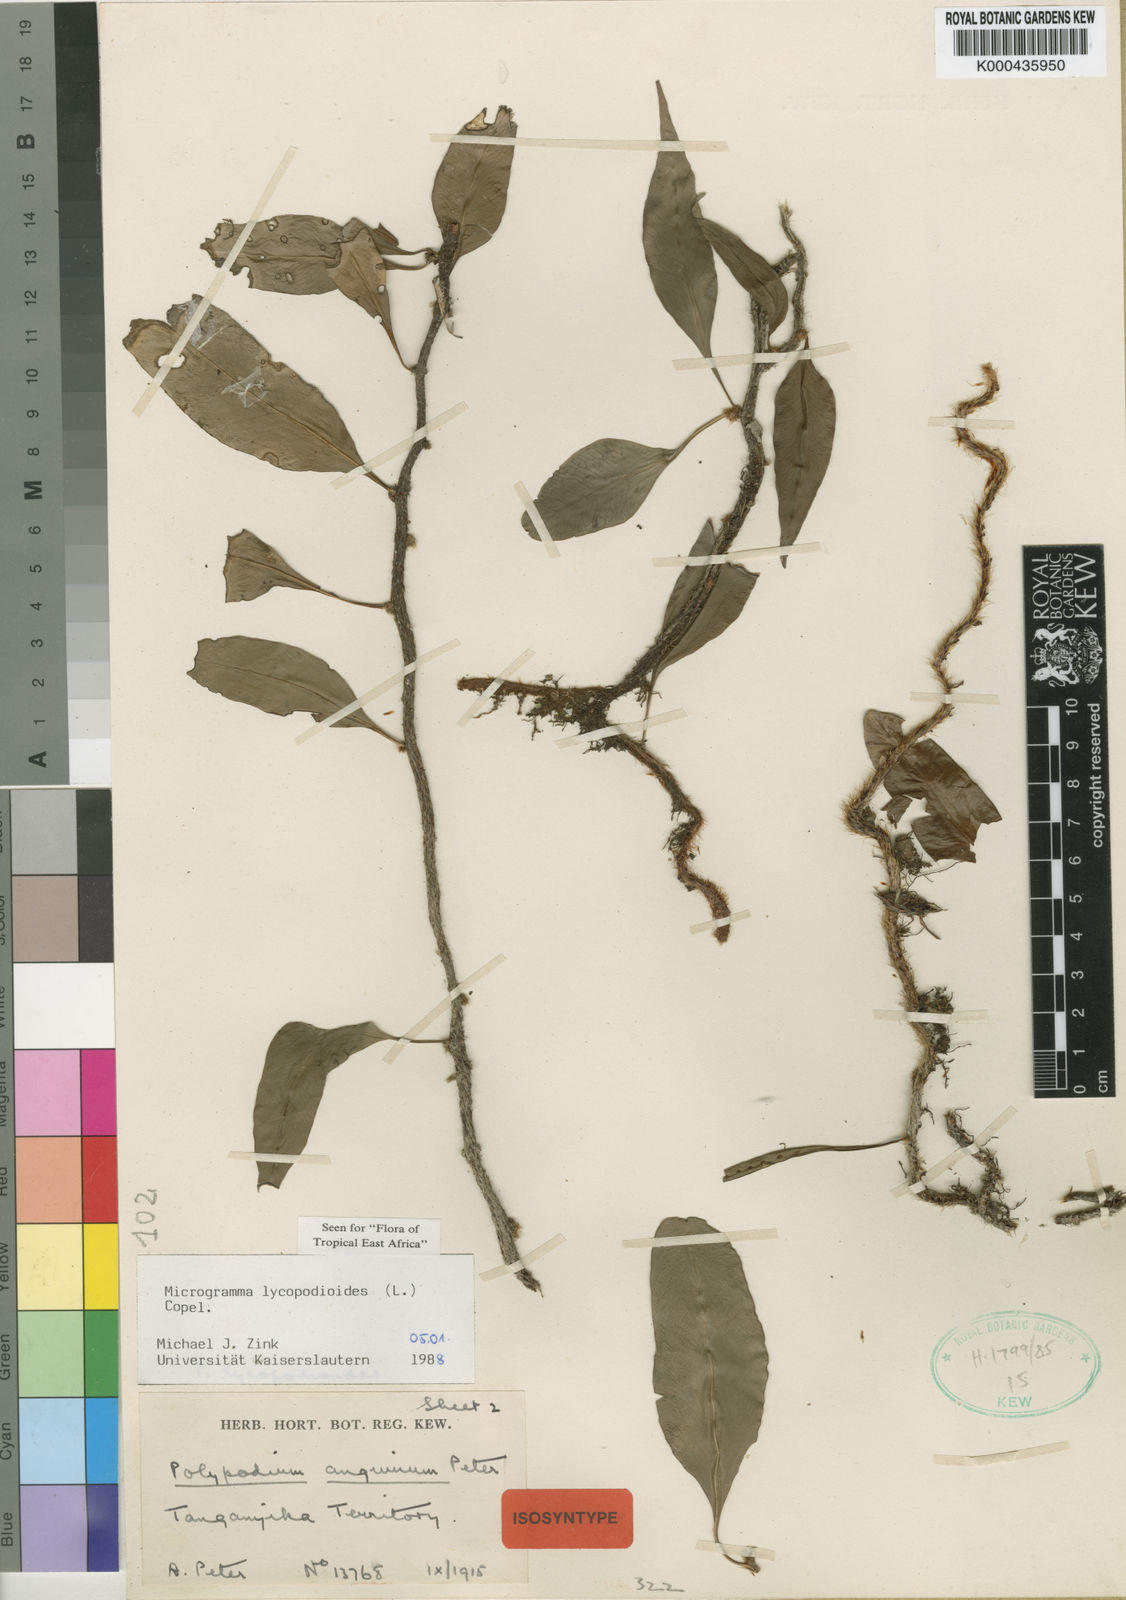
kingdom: Plantae
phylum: Tracheophyta
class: Polypodiopsida
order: Polypodiales
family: Polypodiaceae
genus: Microgramma
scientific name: Microgramma
